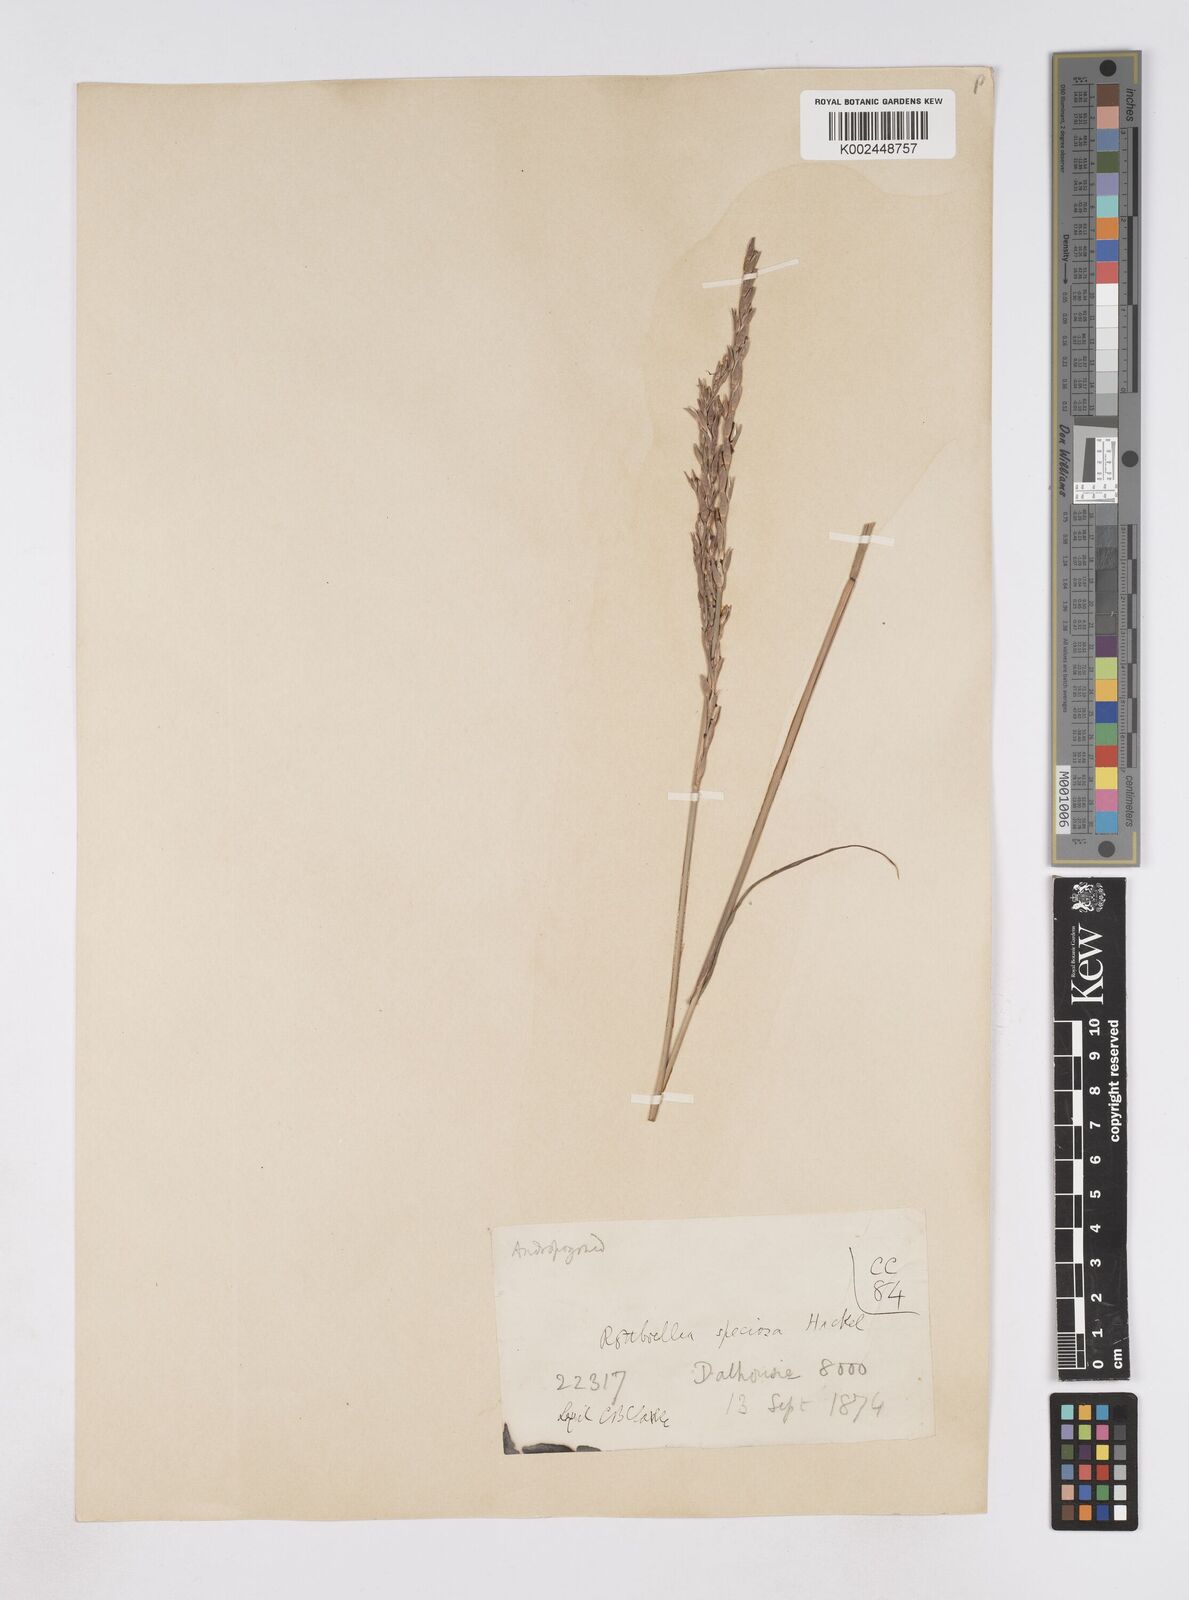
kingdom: Plantae
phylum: Tracheophyta
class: Liliopsida
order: Poales
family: Poaceae
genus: Phacelurus
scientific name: Phacelurus speciosus
